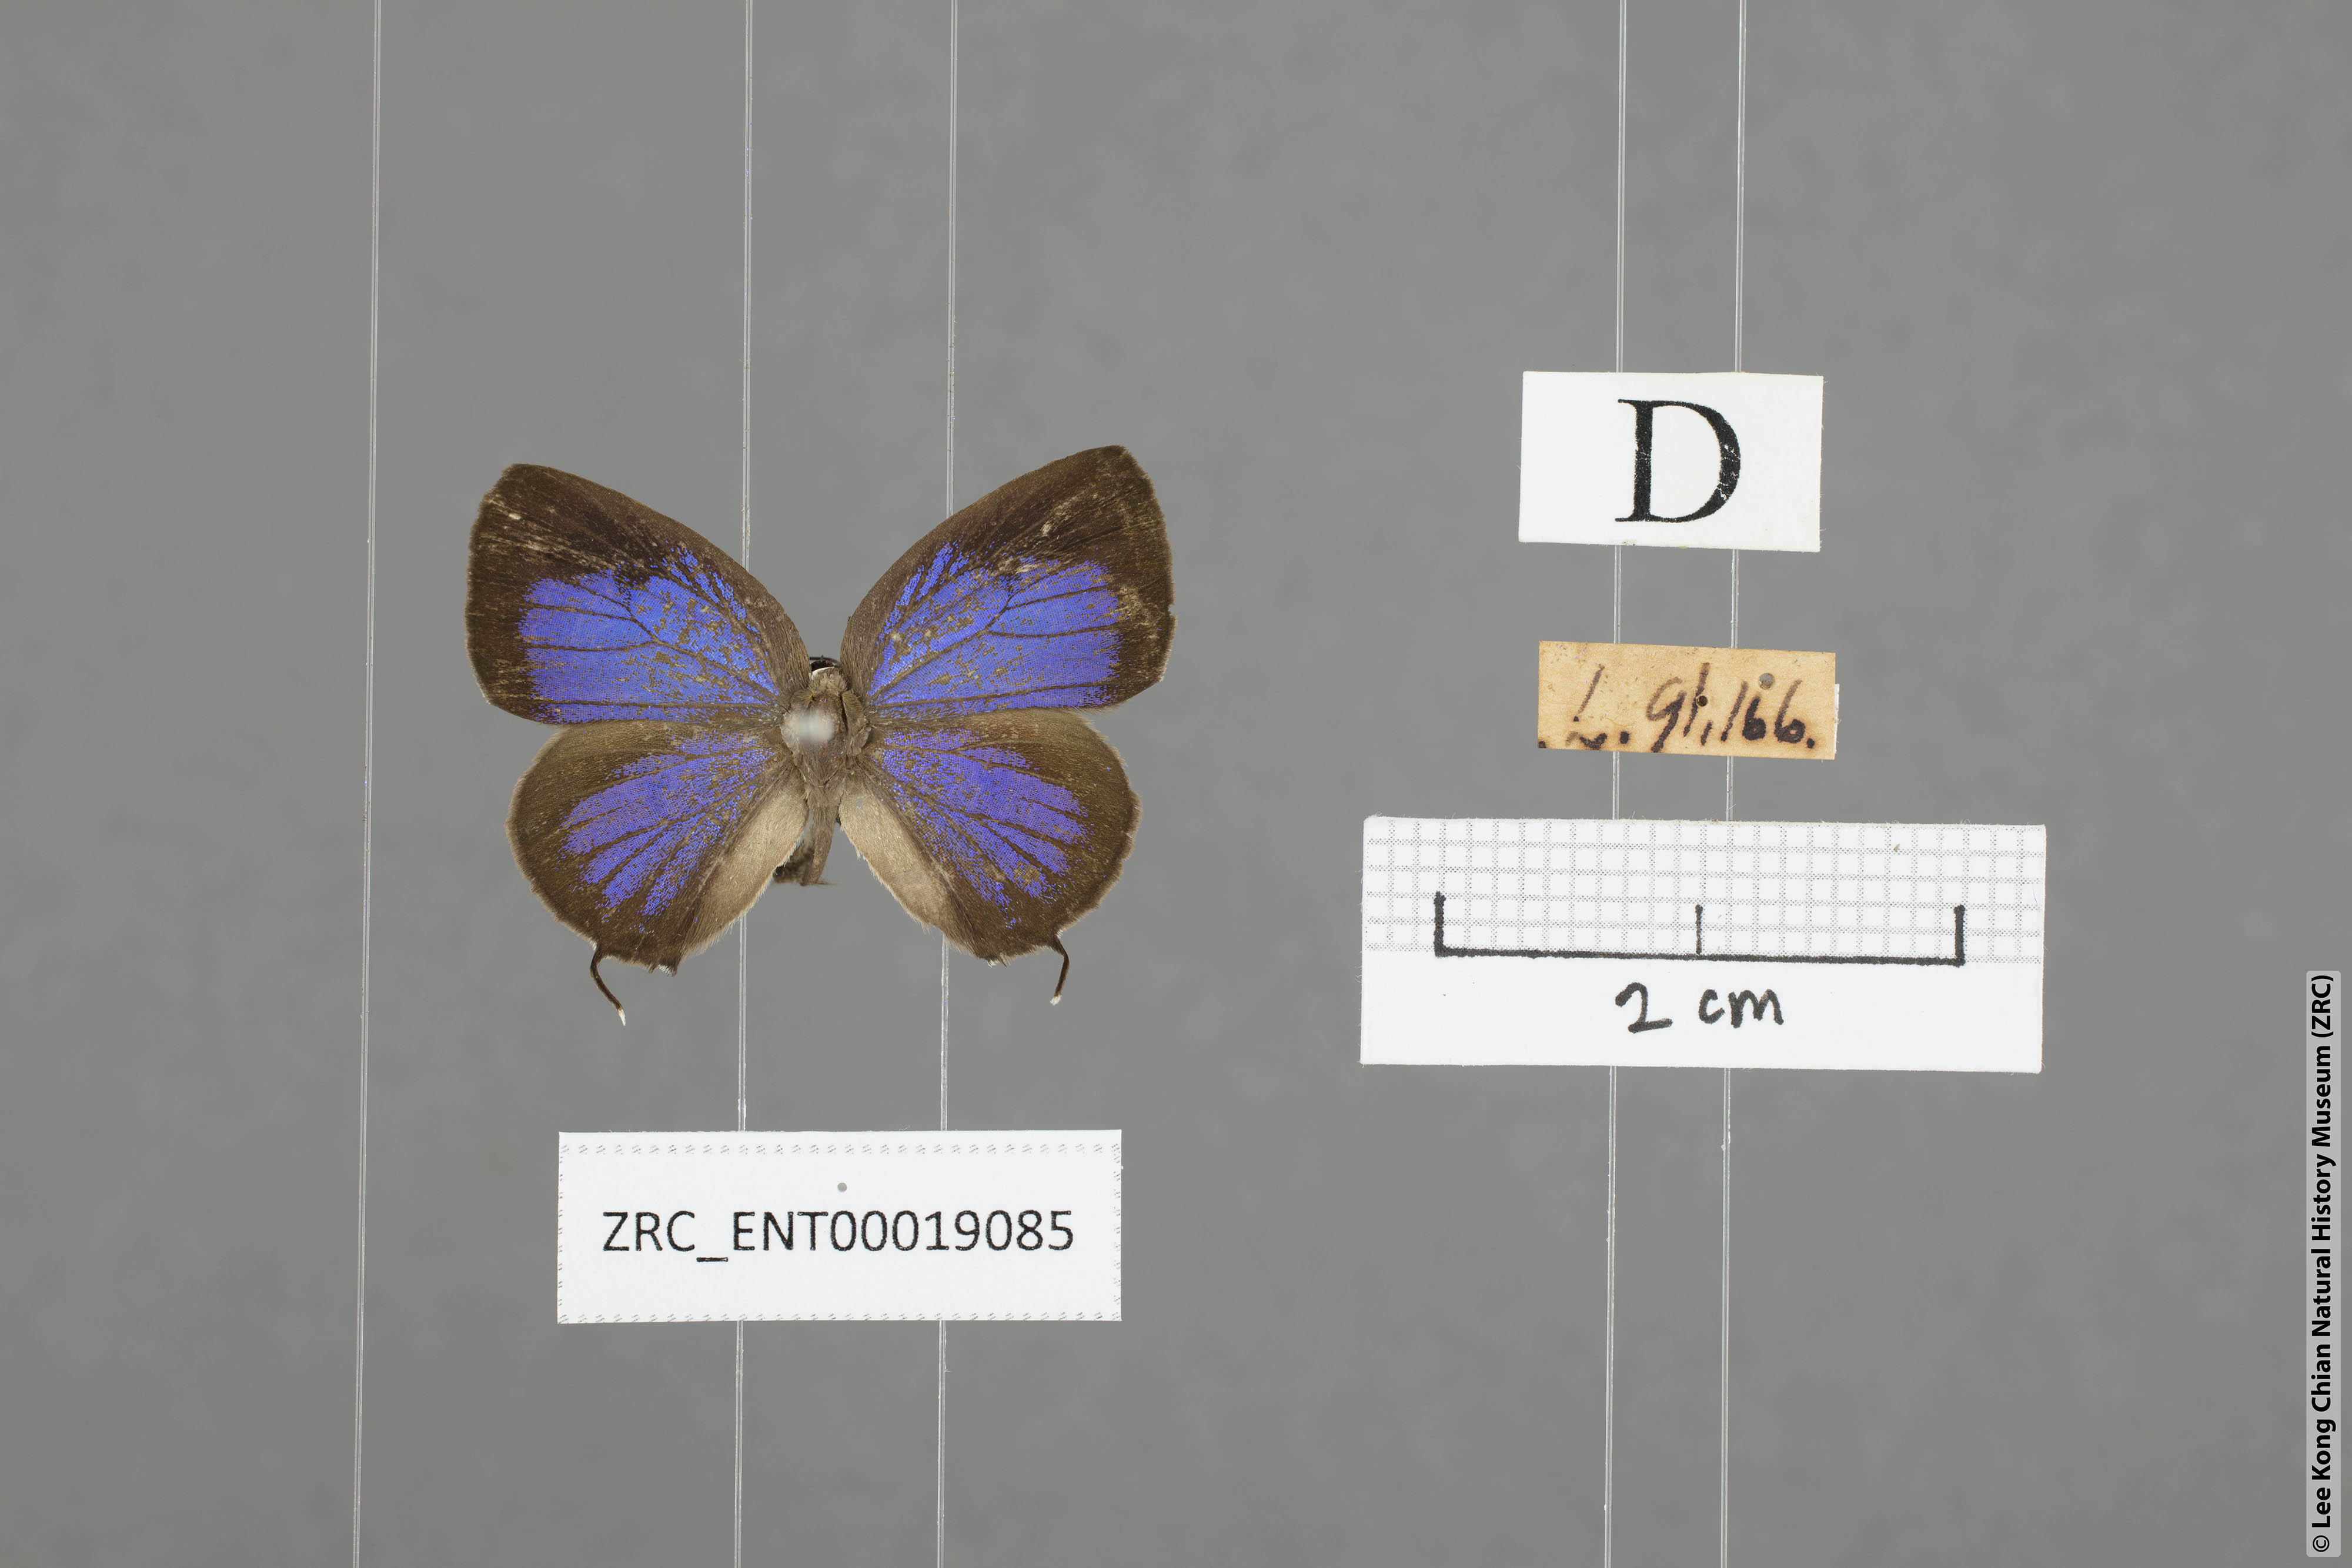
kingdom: Animalia
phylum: Arthropoda
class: Insecta
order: Lepidoptera
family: Lycaenidae
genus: Arhopala
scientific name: Arhopala alitaeus
